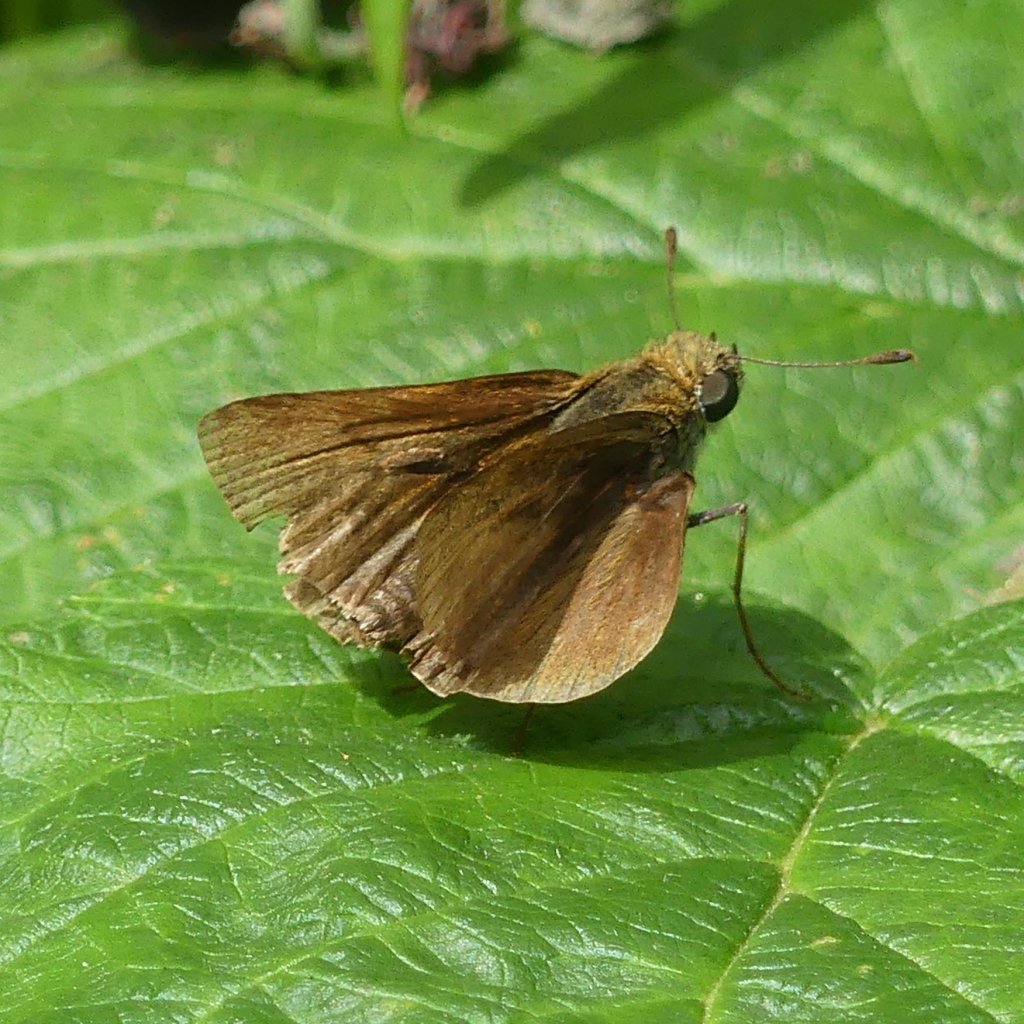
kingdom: Animalia
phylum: Arthropoda
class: Insecta
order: Lepidoptera
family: Hesperiidae
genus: Euphyes
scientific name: Euphyes vestris
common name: Dun Skipper
